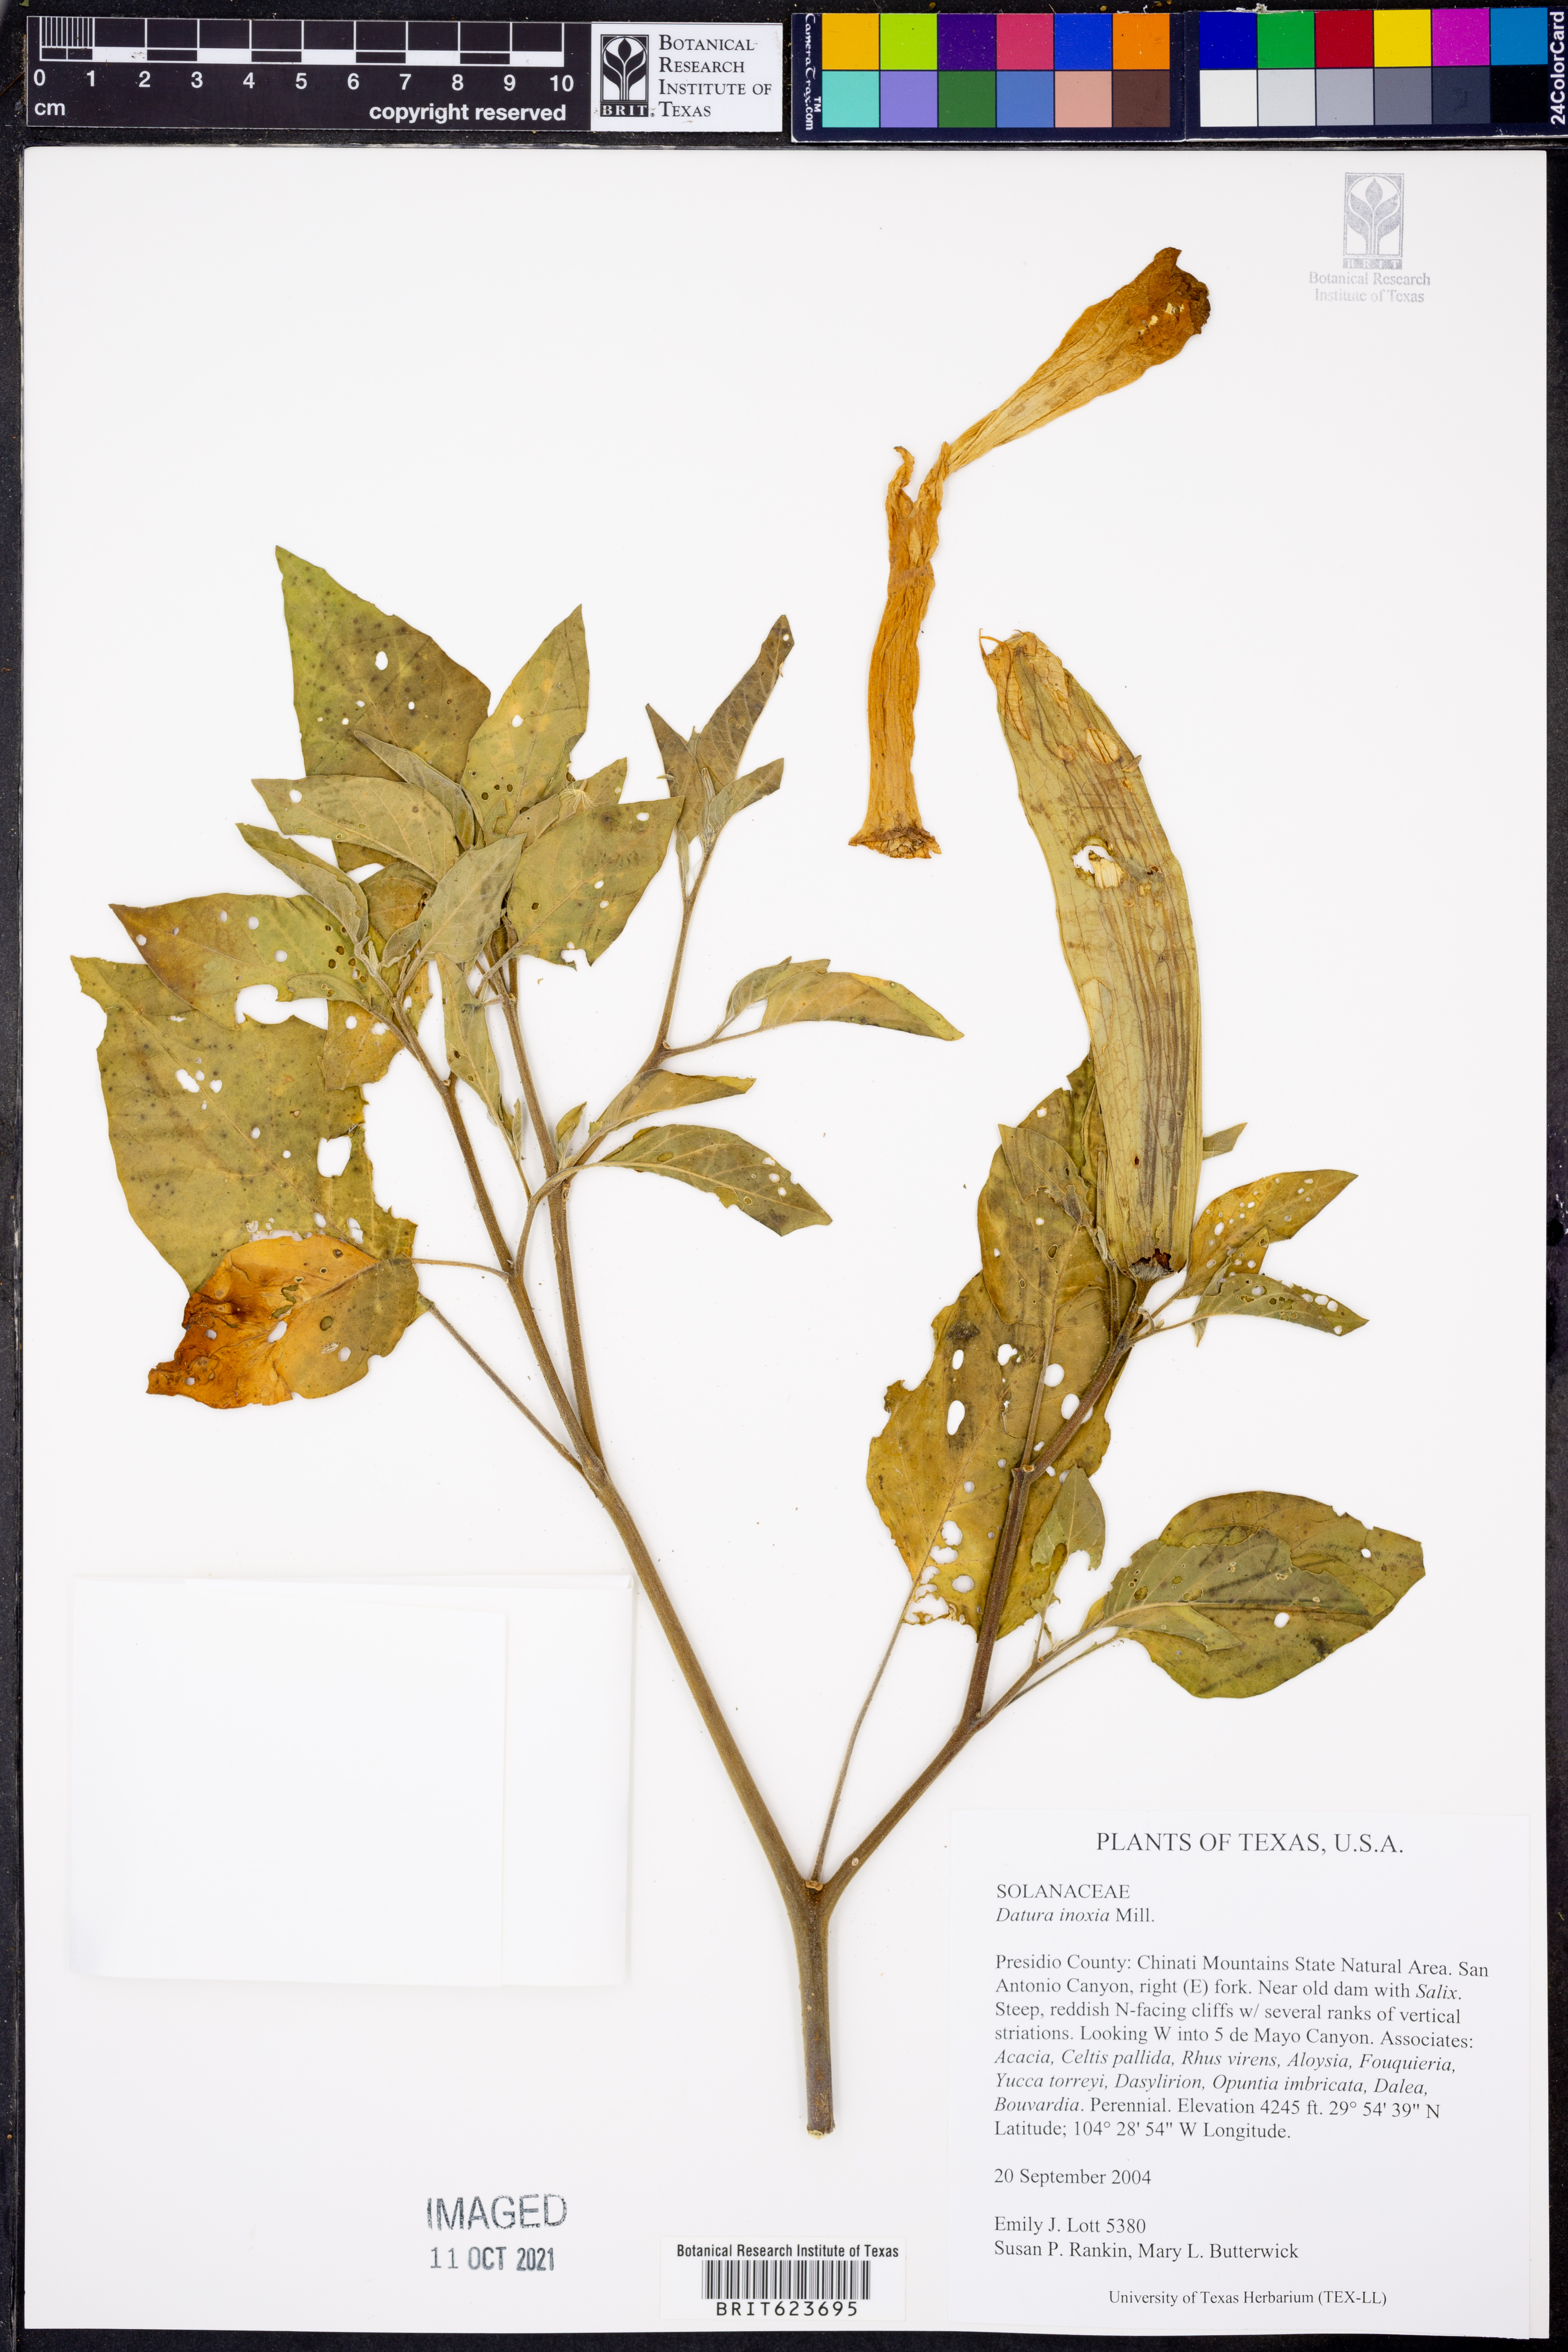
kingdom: Plantae
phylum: Tracheophyta
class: Magnoliopsida
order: Solanales
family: Solanaceae
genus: Datura
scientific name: Datura innoxia
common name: Downy thorn-apple
